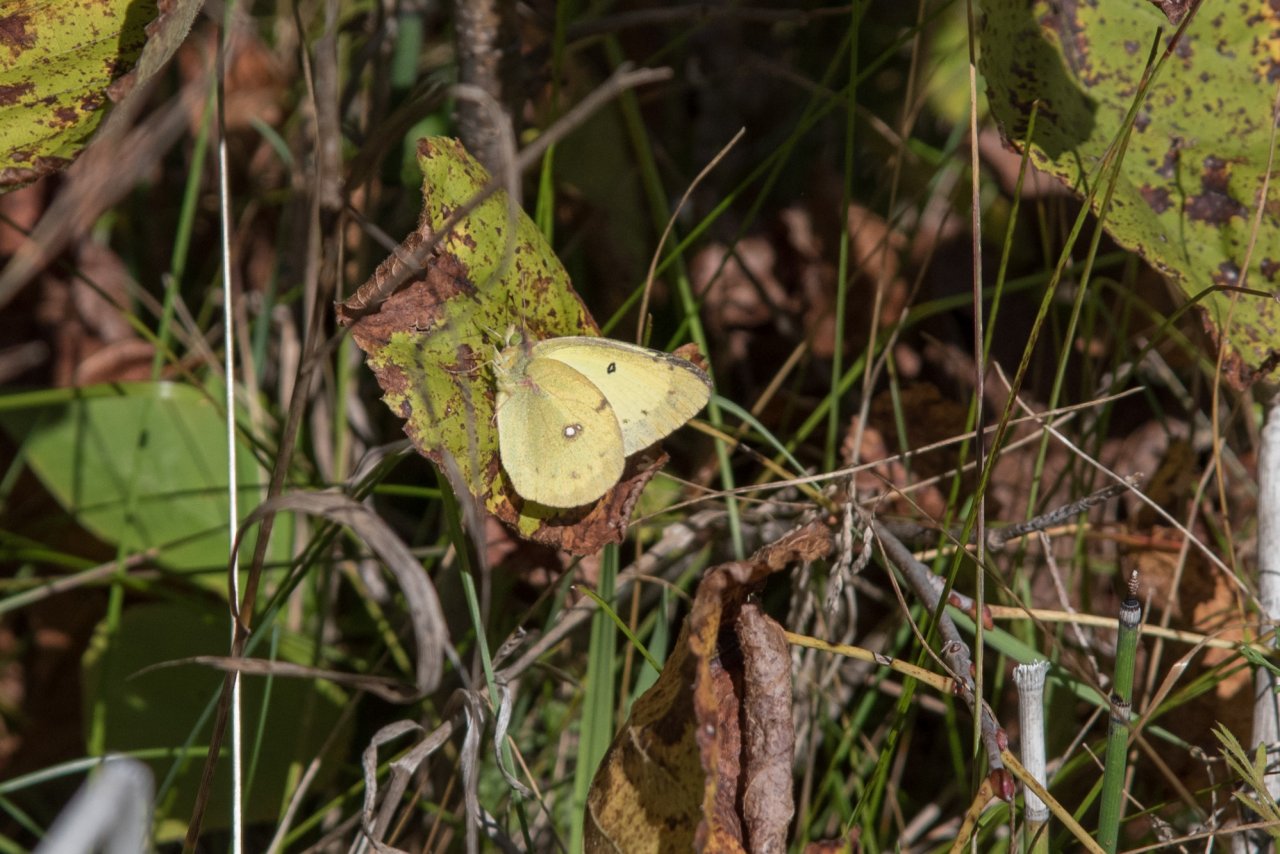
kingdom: Animalia
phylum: Arthropoda
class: Insecta
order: Lepidoptera
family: Pieridae
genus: Colias
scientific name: Colias philodice
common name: Clouded Sulphur
